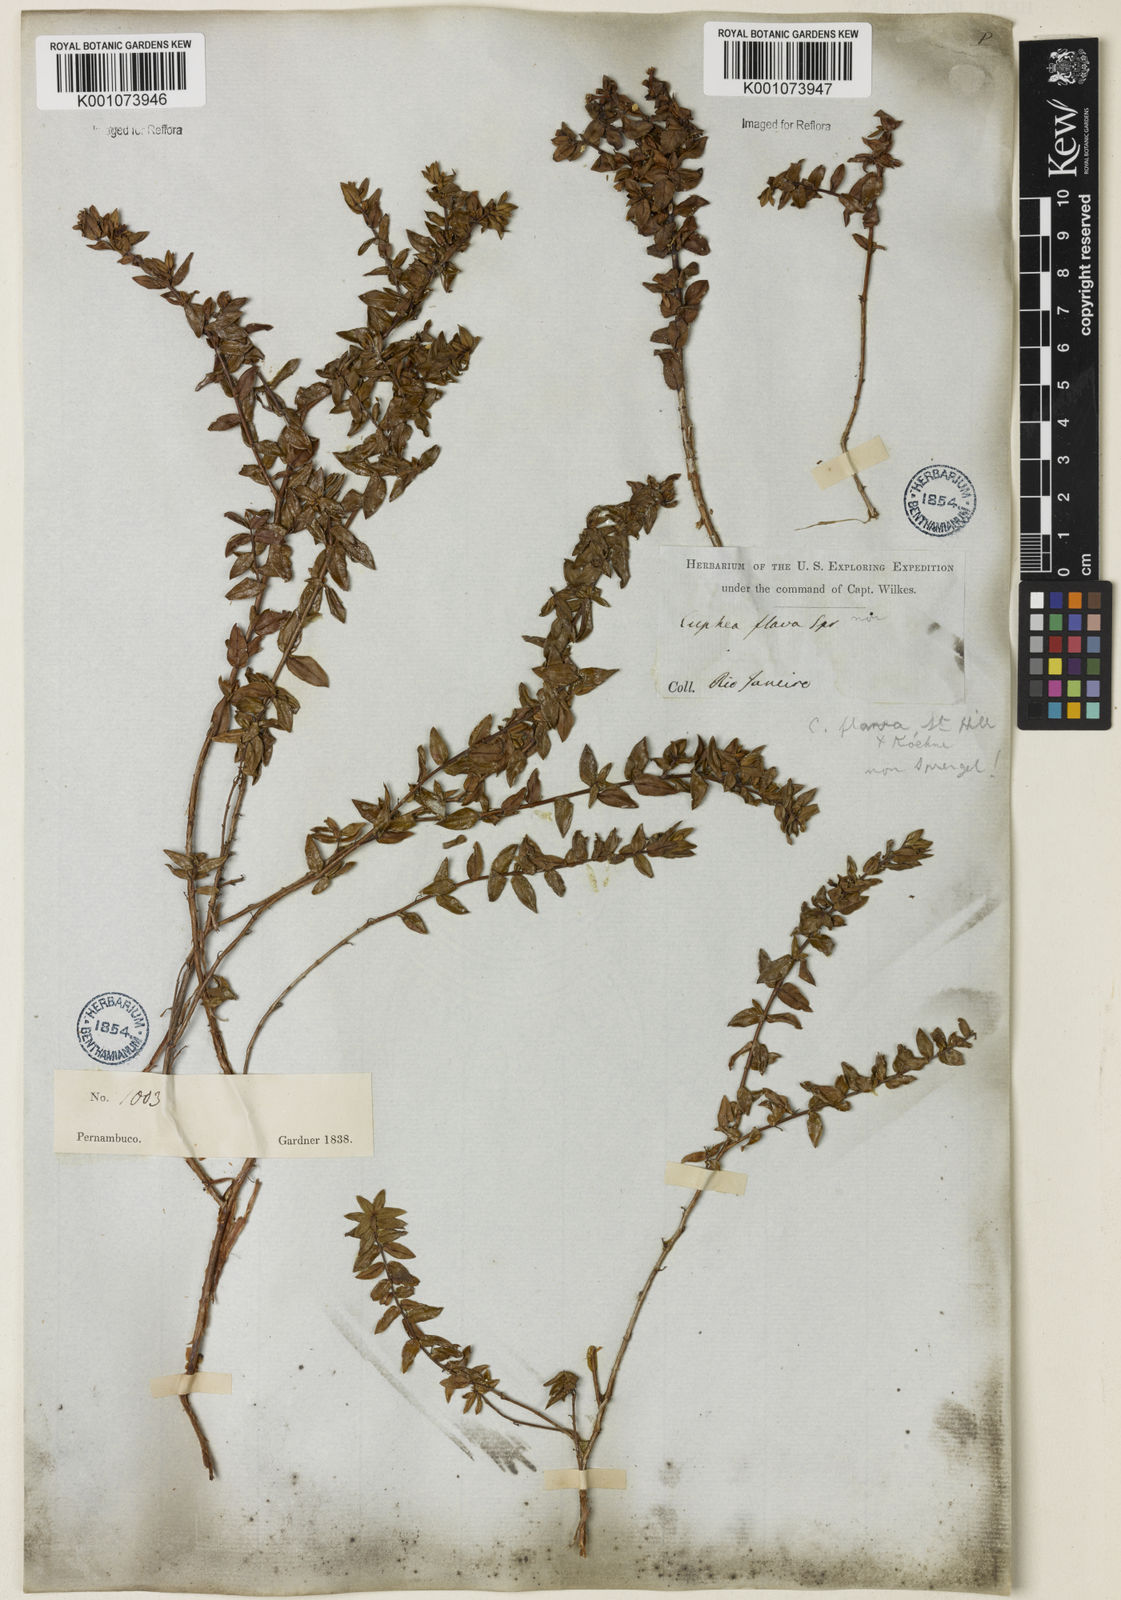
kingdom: Plantae
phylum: Tracheophyta
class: Magnoliopsida
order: Myrtales
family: Lythraceae
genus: Cuphea
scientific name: Cuphea flava
